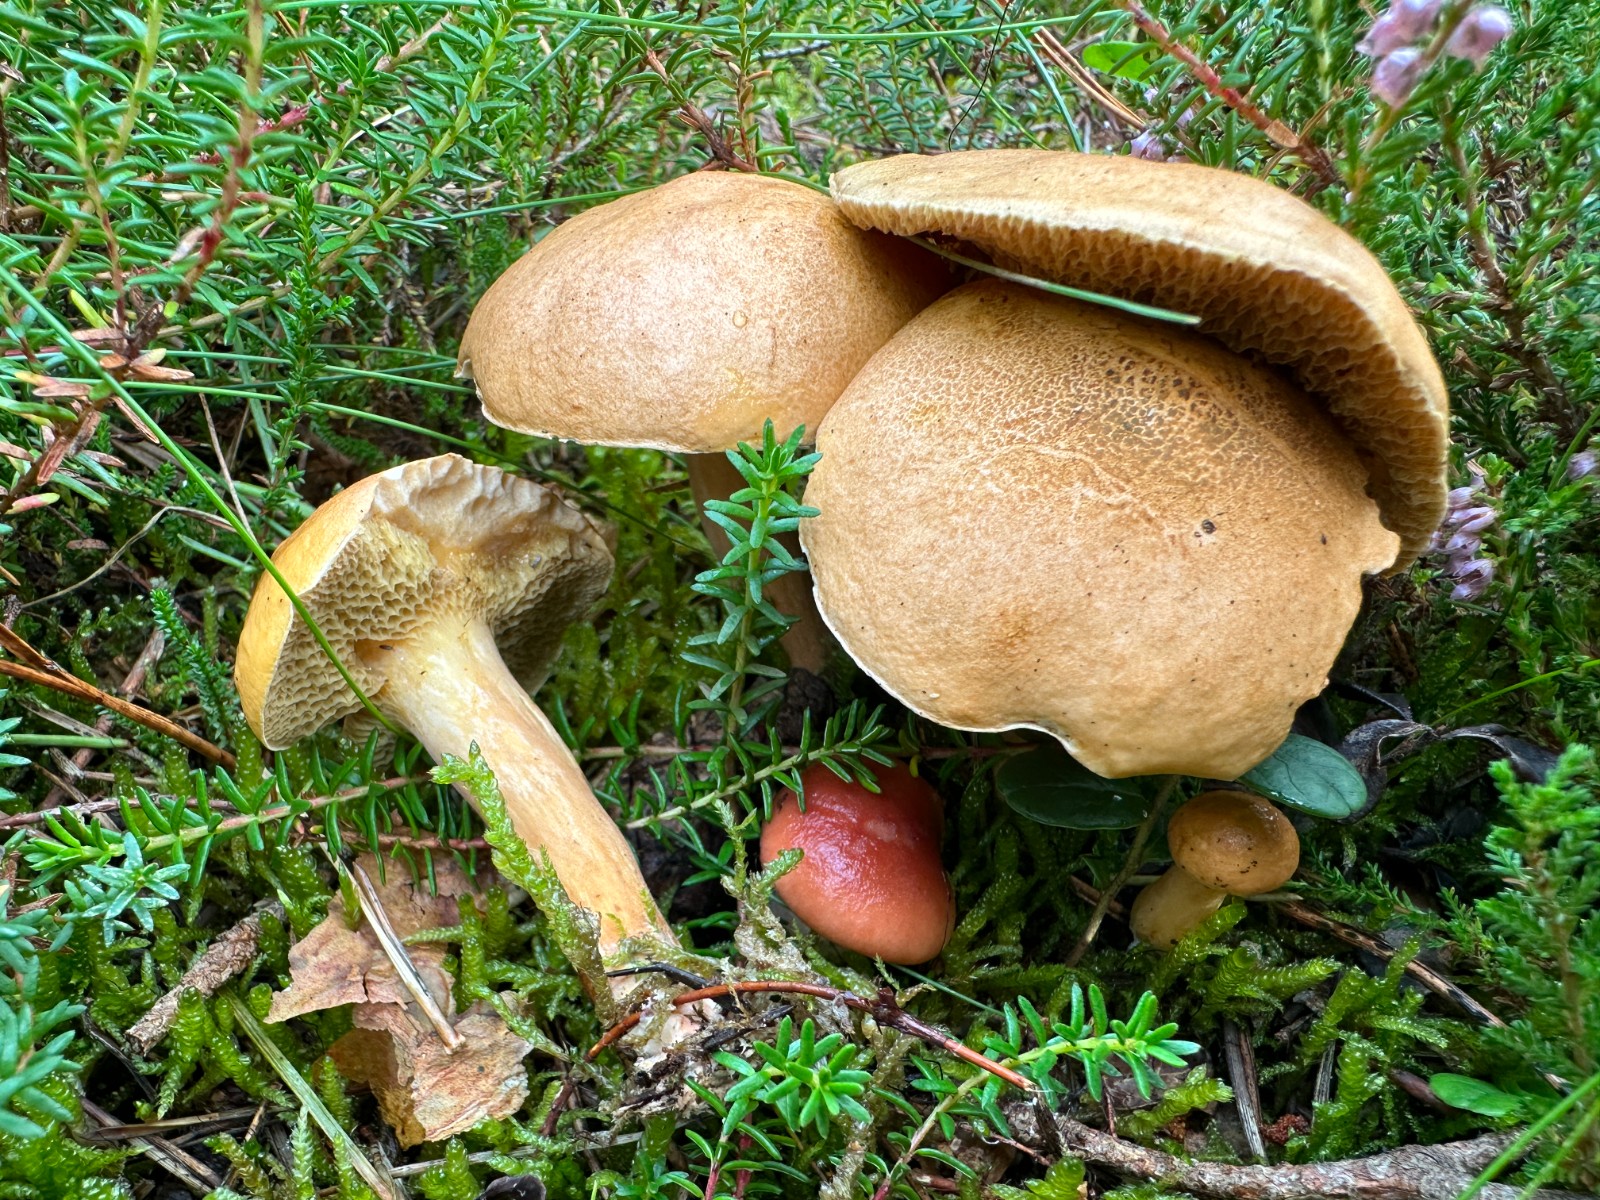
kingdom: Fungi
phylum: Basidiomycota
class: Agaricomycetes
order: Boletales
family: Suillaceae
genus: Suillus
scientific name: Suillus bovinus
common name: grovporet slimrørhat
